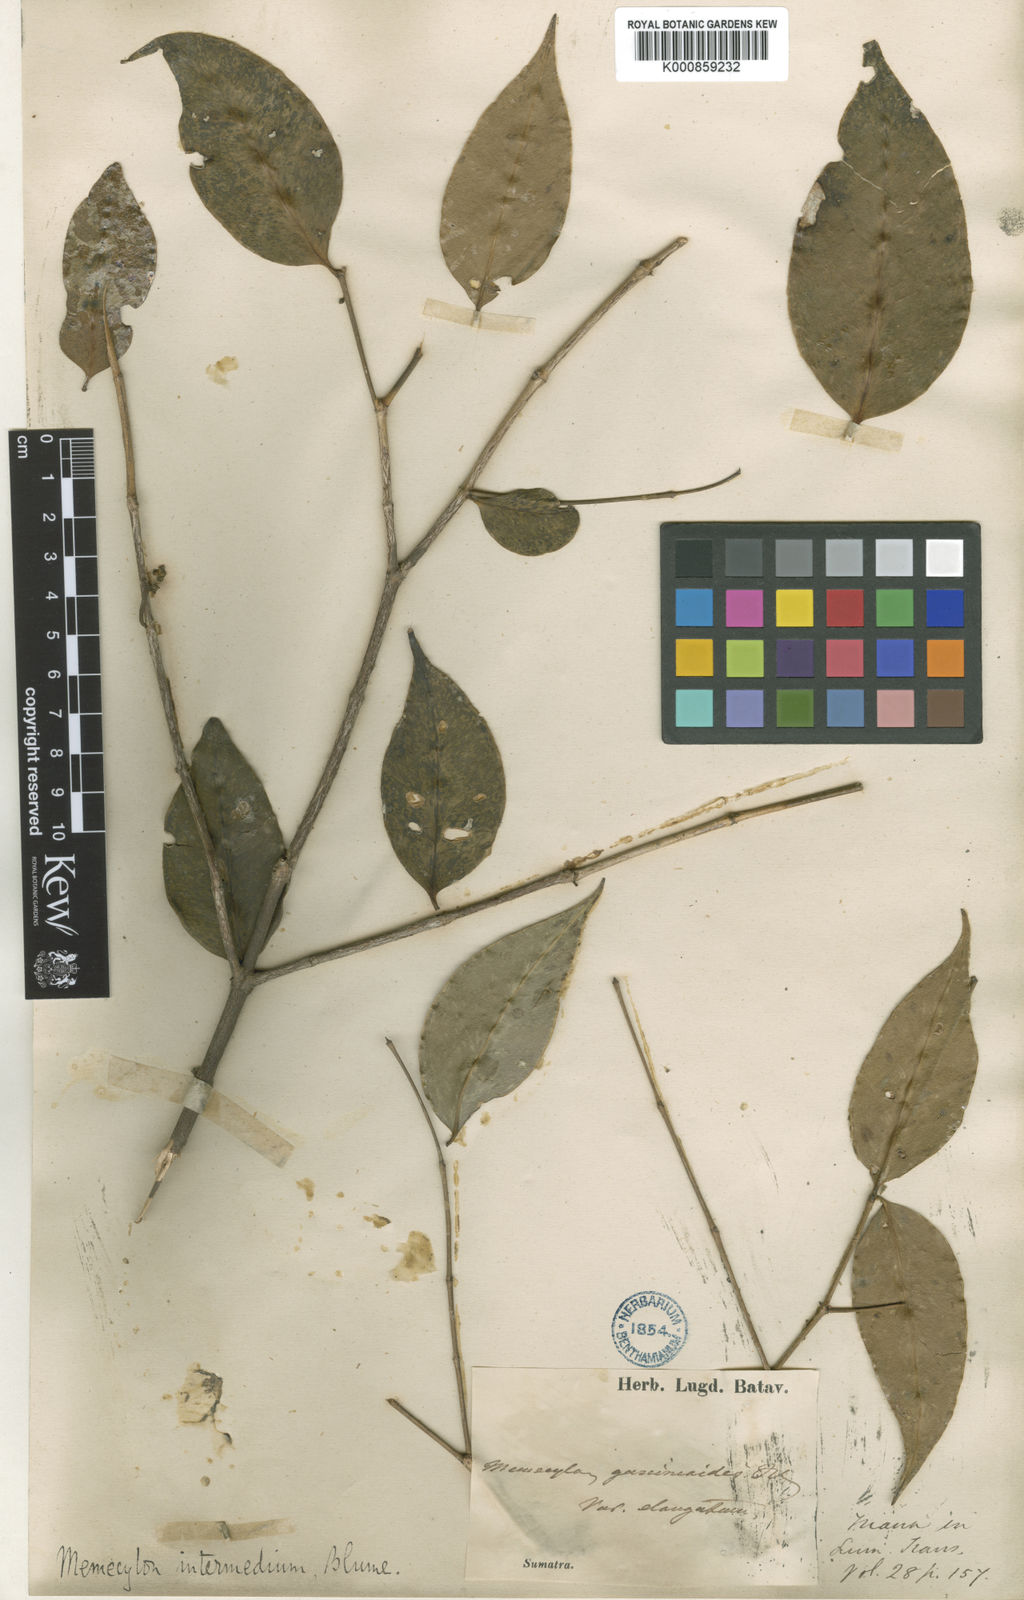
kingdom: Plantae
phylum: Tracheophyta
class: Magnoliopsida
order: Myrtales
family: Melastomataceae
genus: Memecylon
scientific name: Memecylon intermedium
